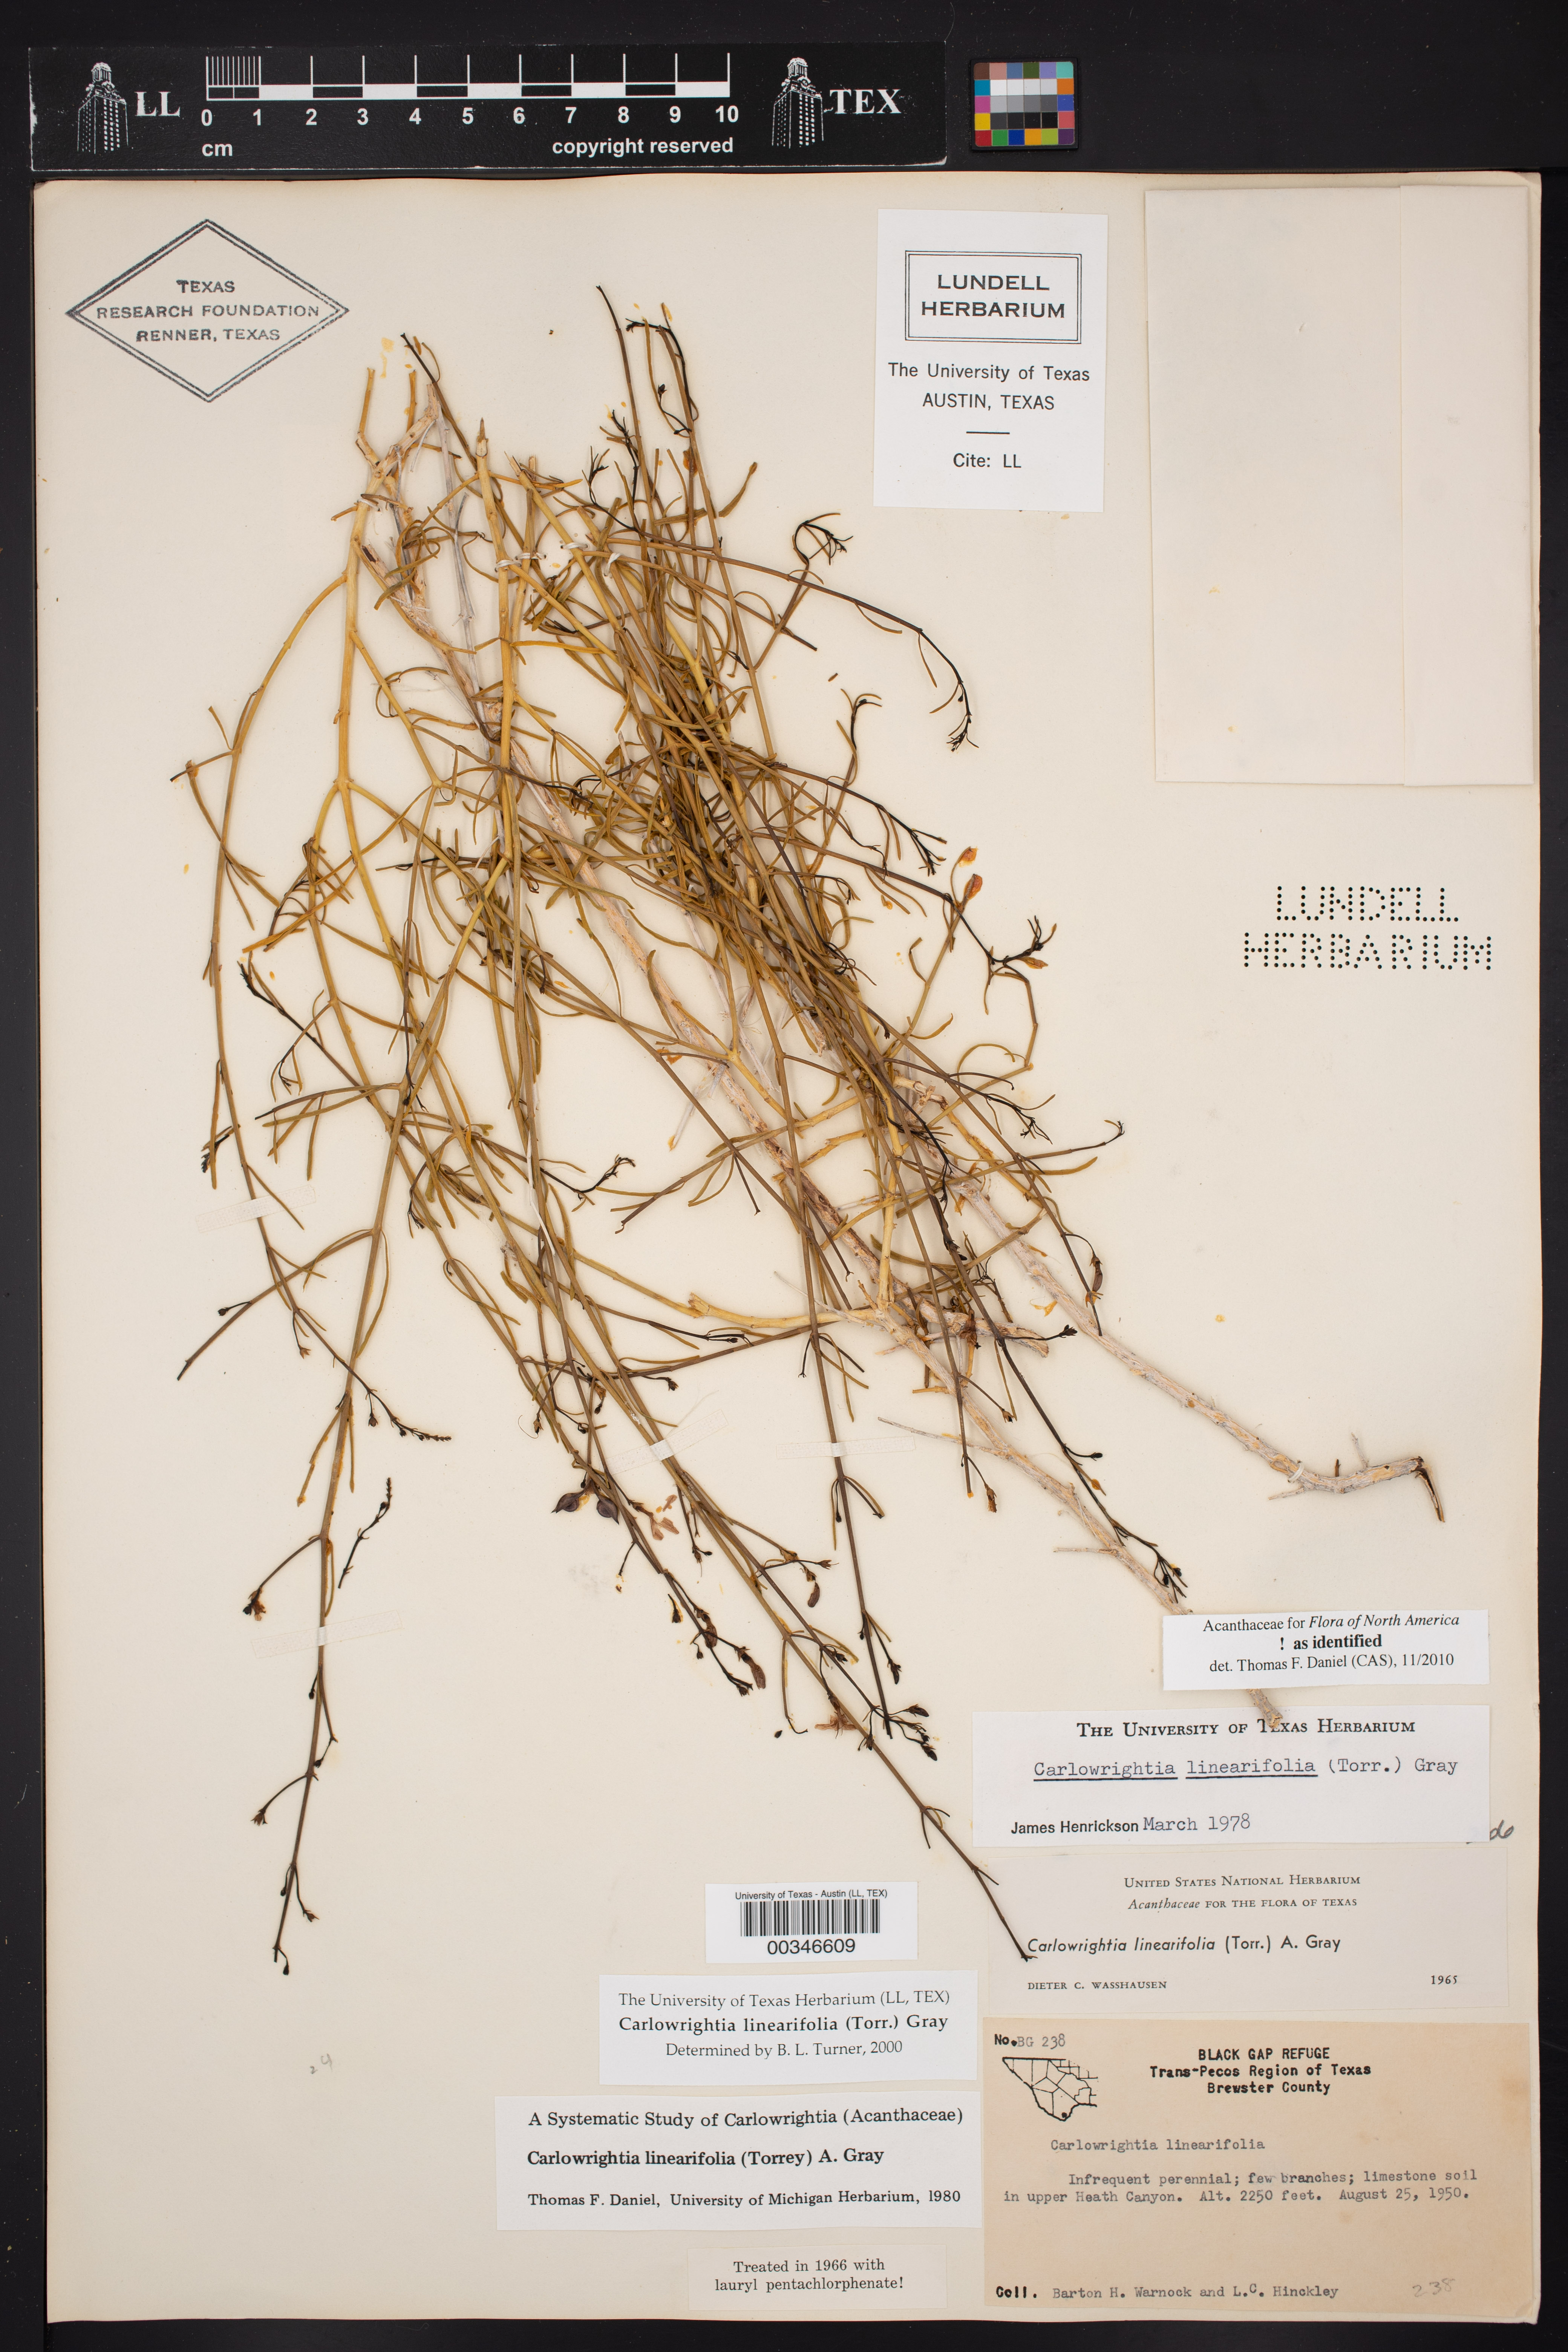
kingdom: Plantae
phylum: Tracheophyta
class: Magnoliopsida
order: Lamiales
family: Acanthaceae
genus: Carlowrightia
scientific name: Carlowrightia linearifolia
